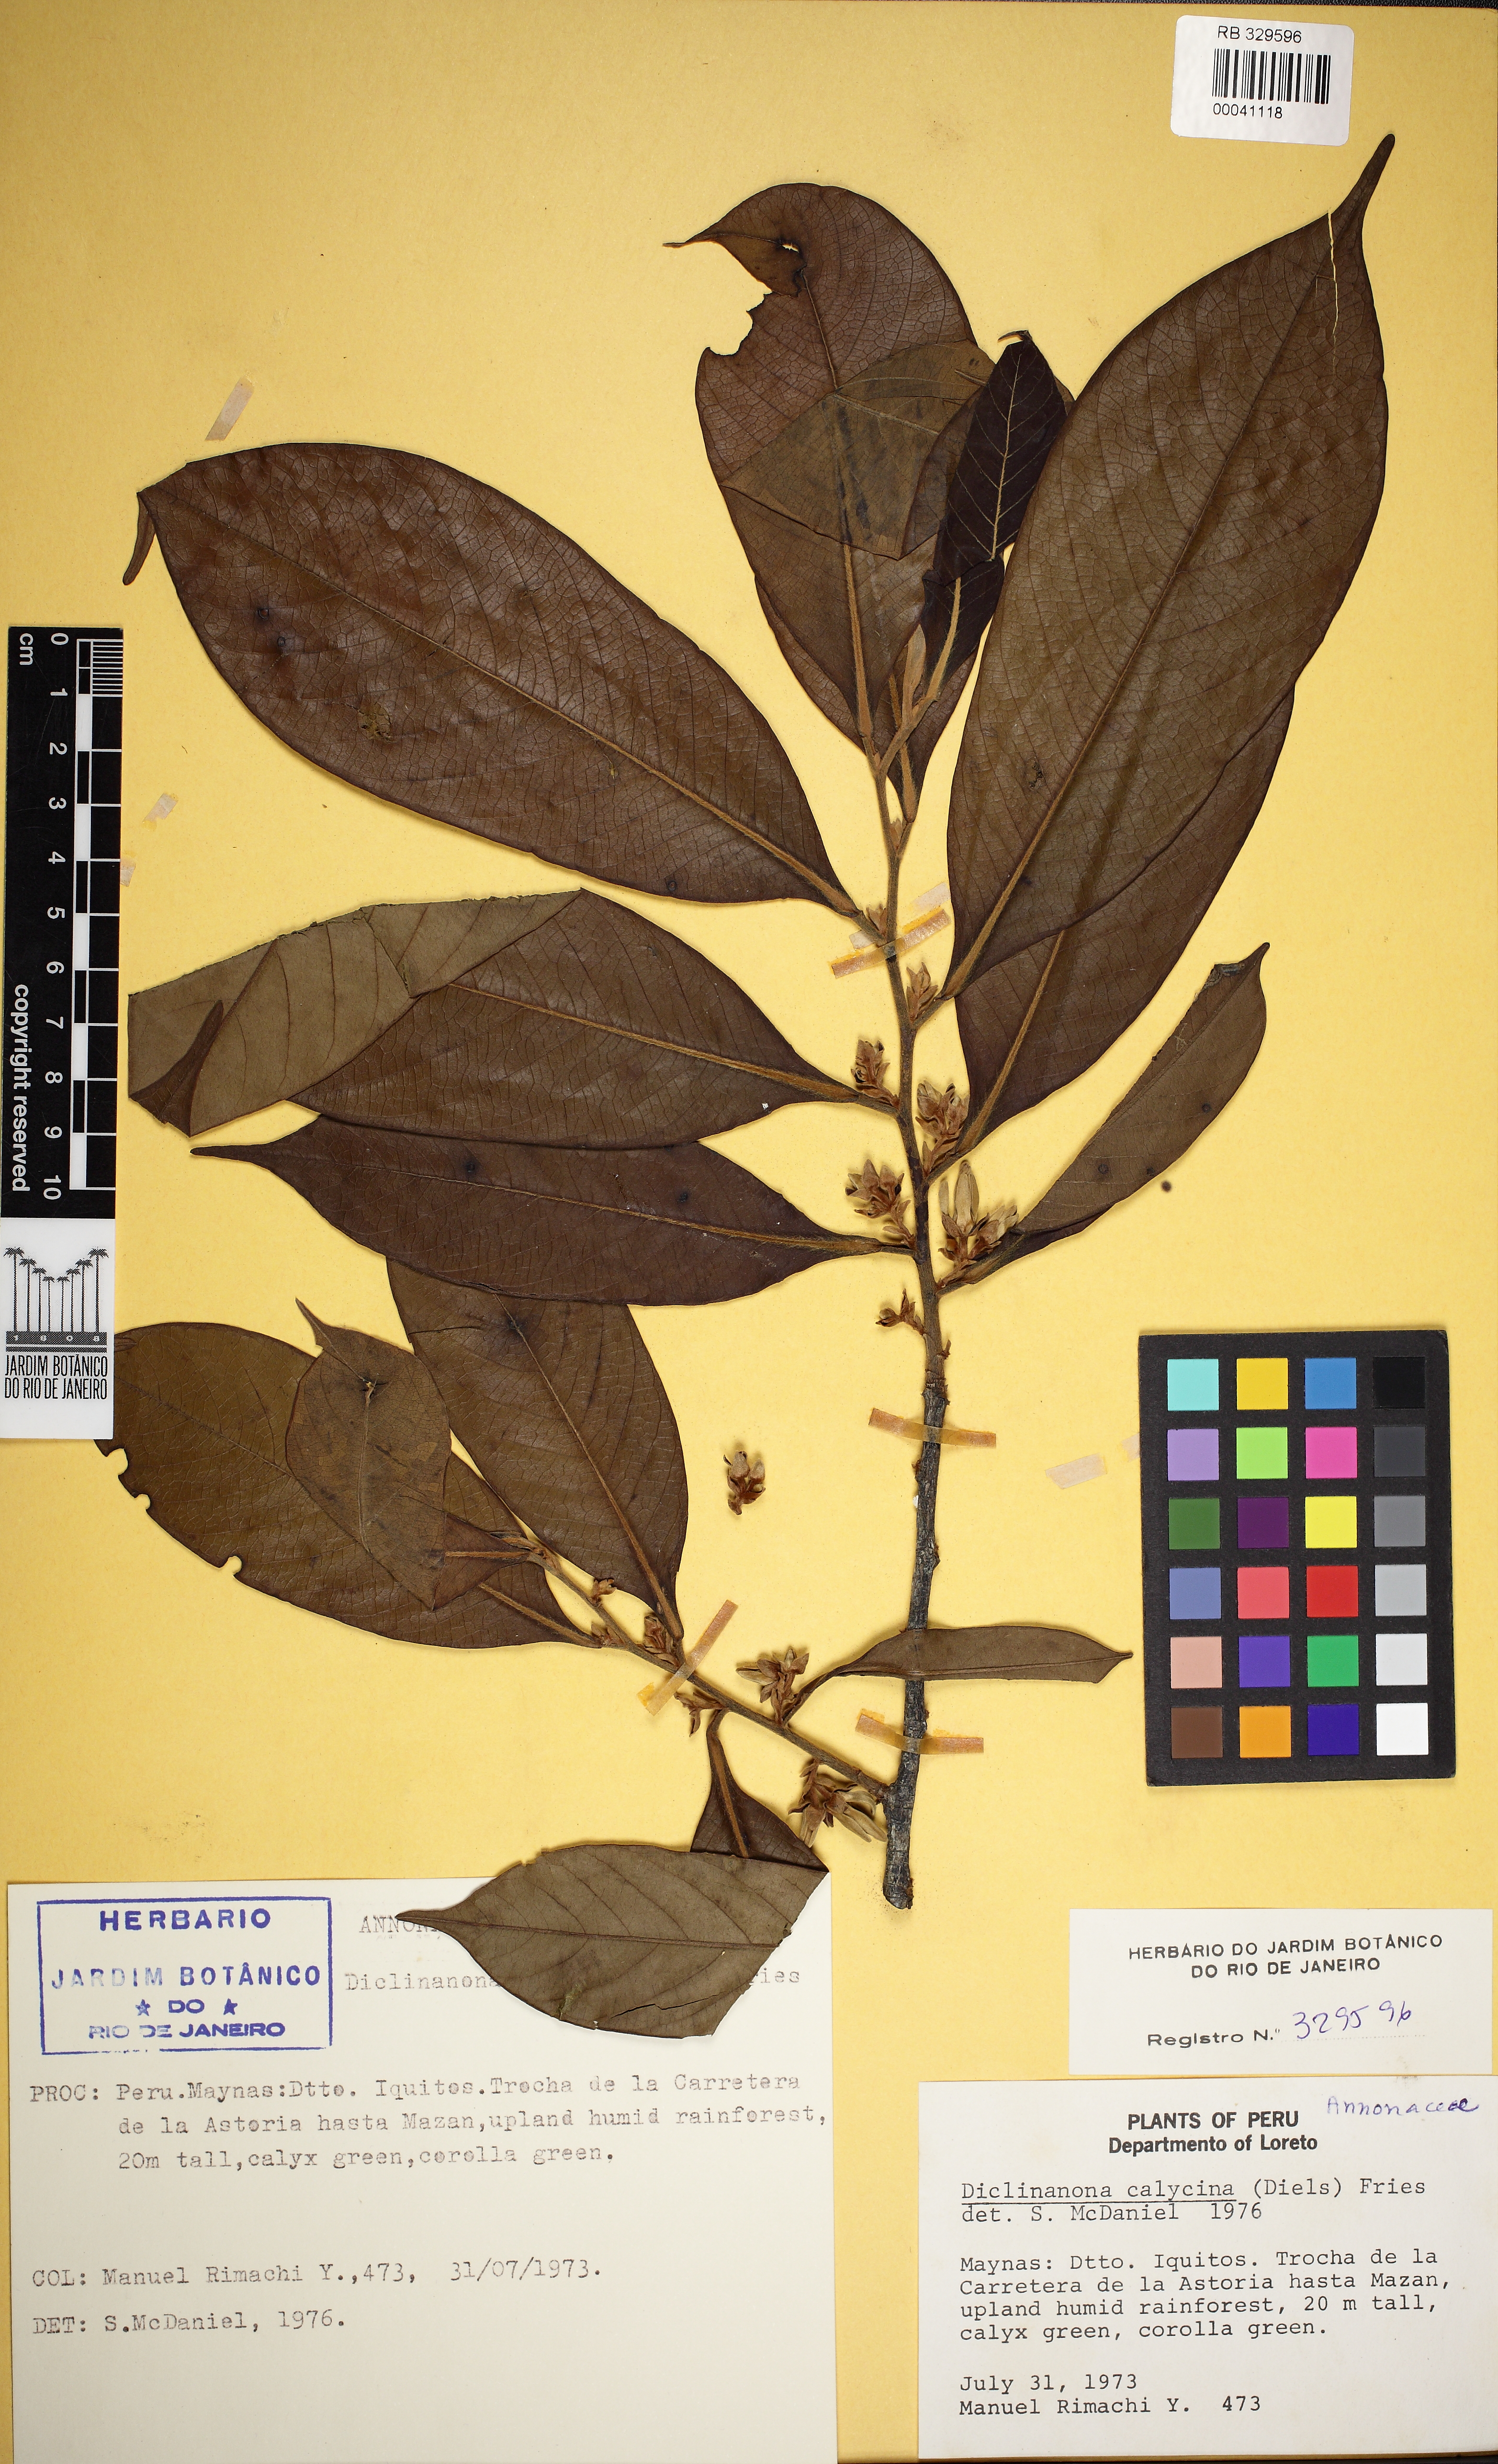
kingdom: Plantae
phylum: Tracheophyta
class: Magnoliopsida
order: Magnoliales
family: Annonaceae
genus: Diclinanona
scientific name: Diclinanona calycina
